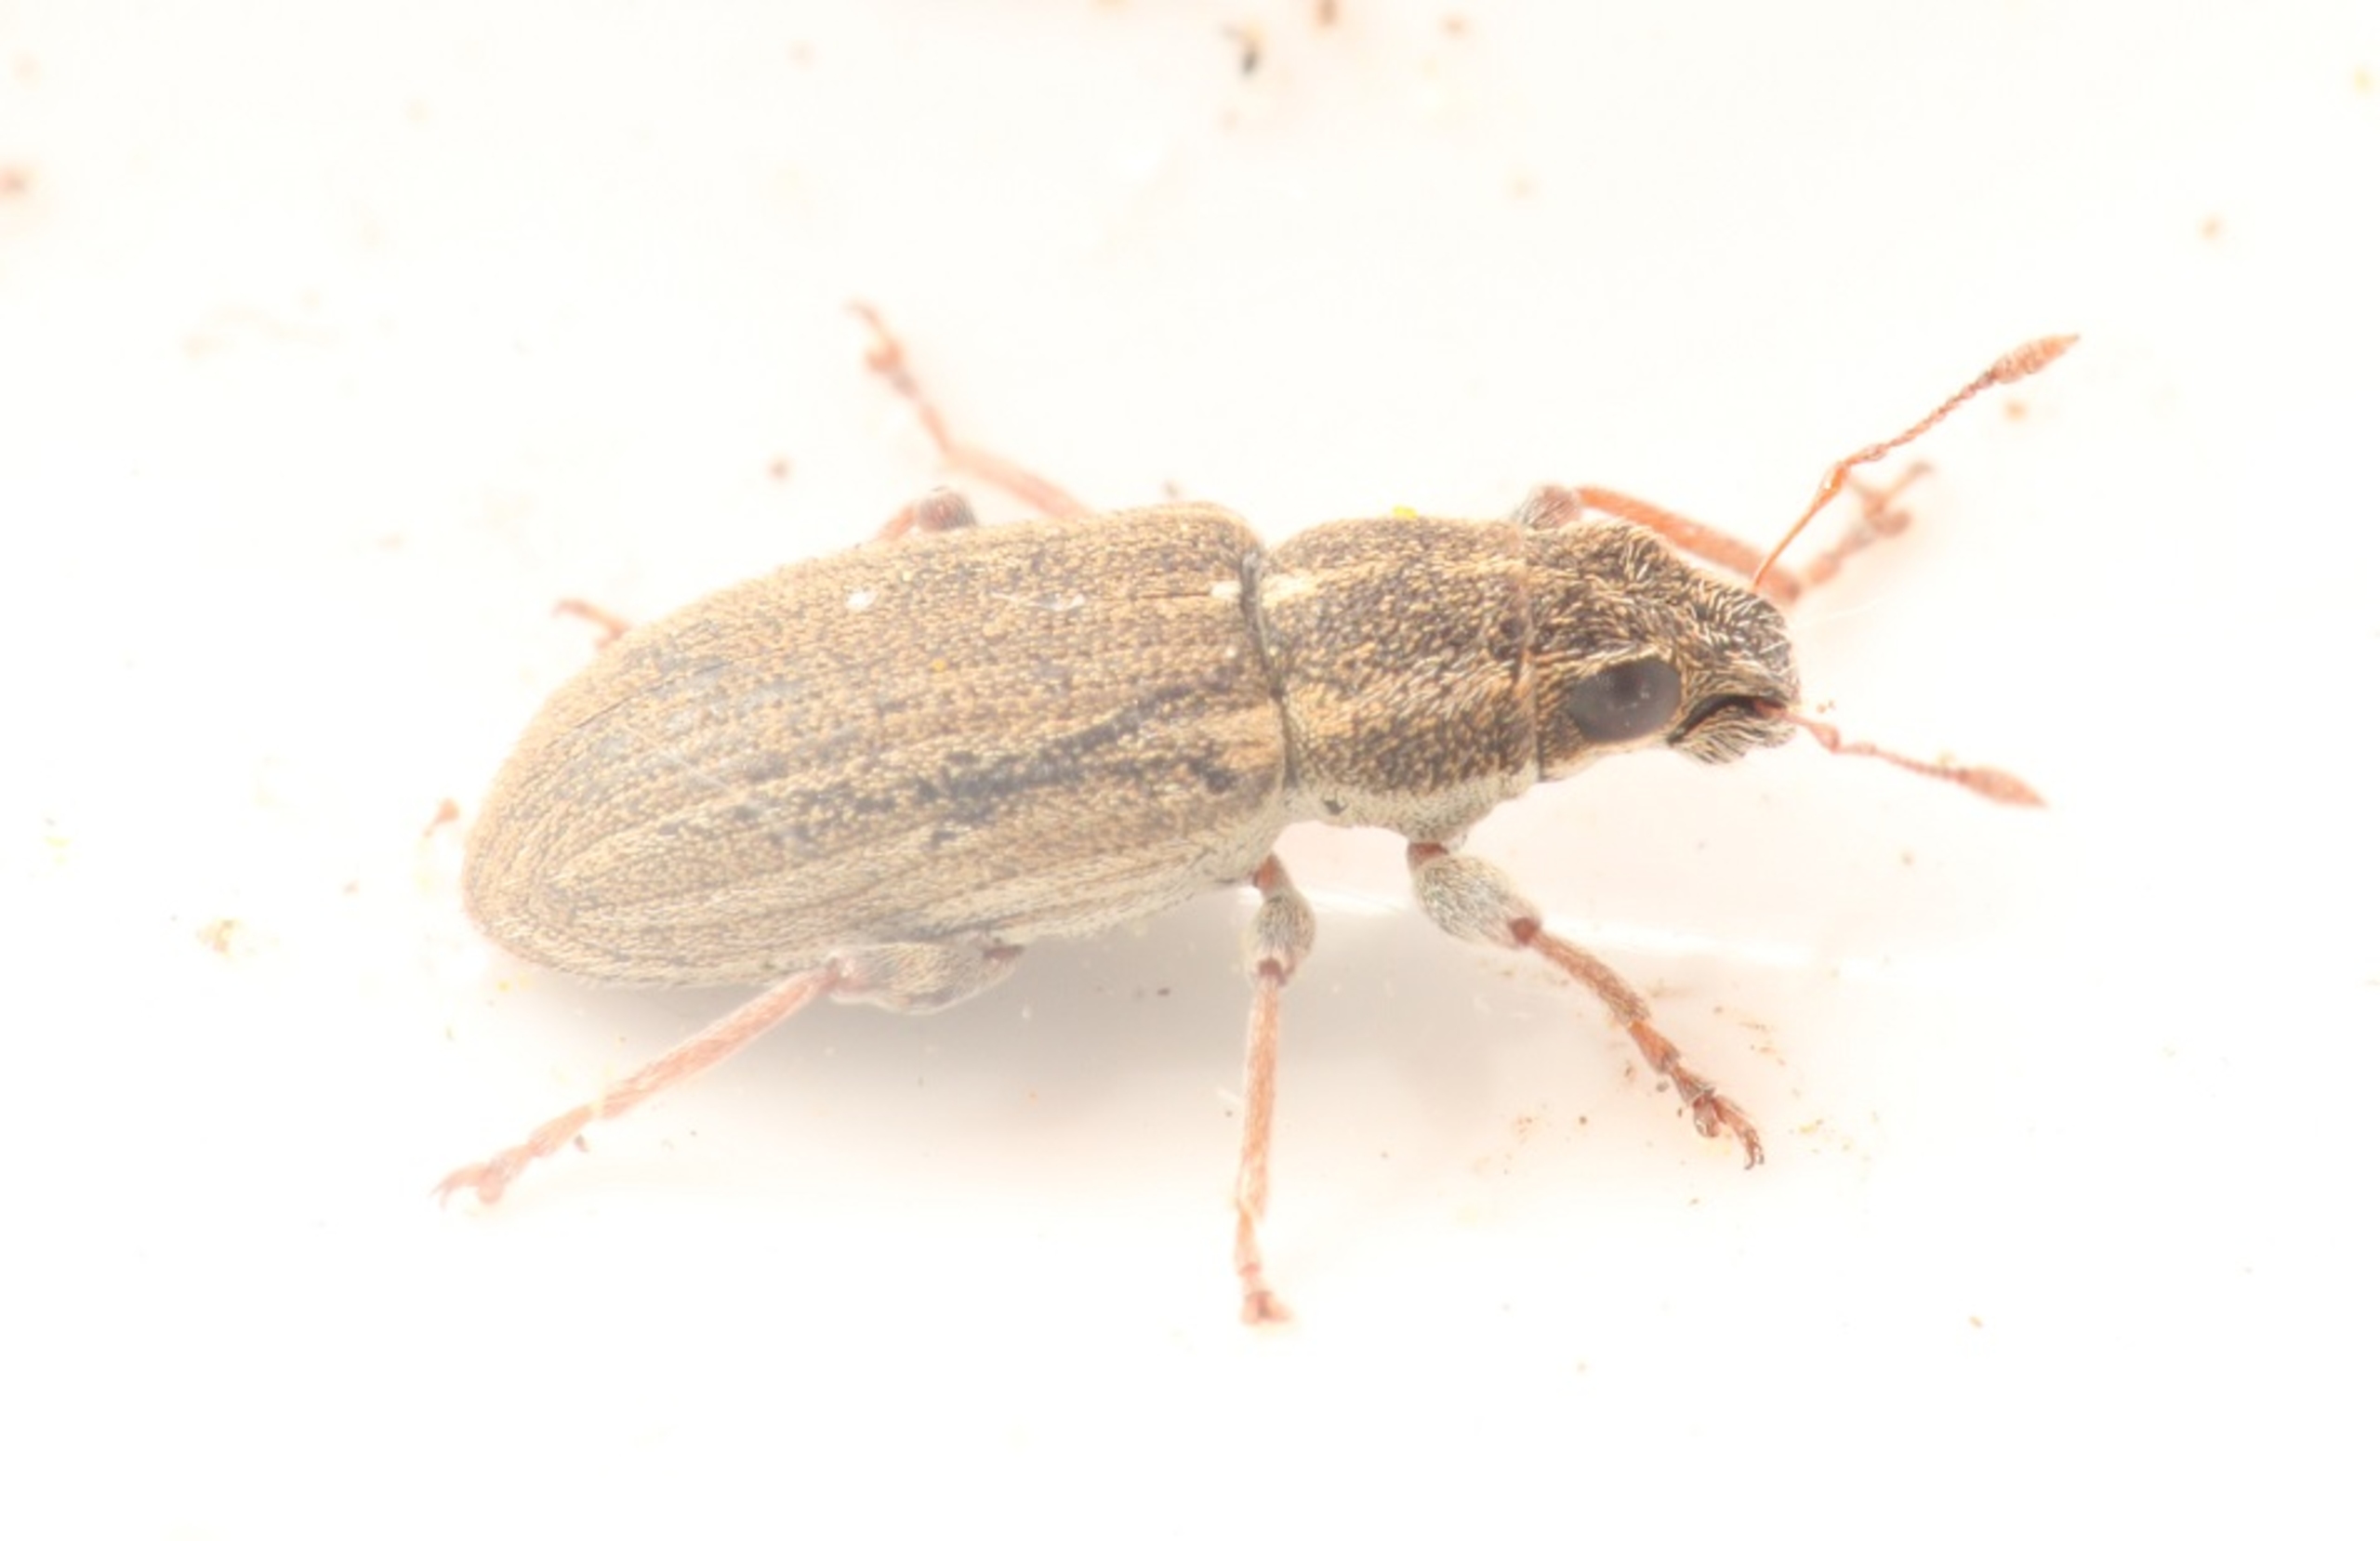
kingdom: Animalia
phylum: Arthropoda
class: Insecta
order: Coleoptera
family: Curculionidae
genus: Sitona
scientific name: Sitona lineatus
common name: Stribet bladrandbille
